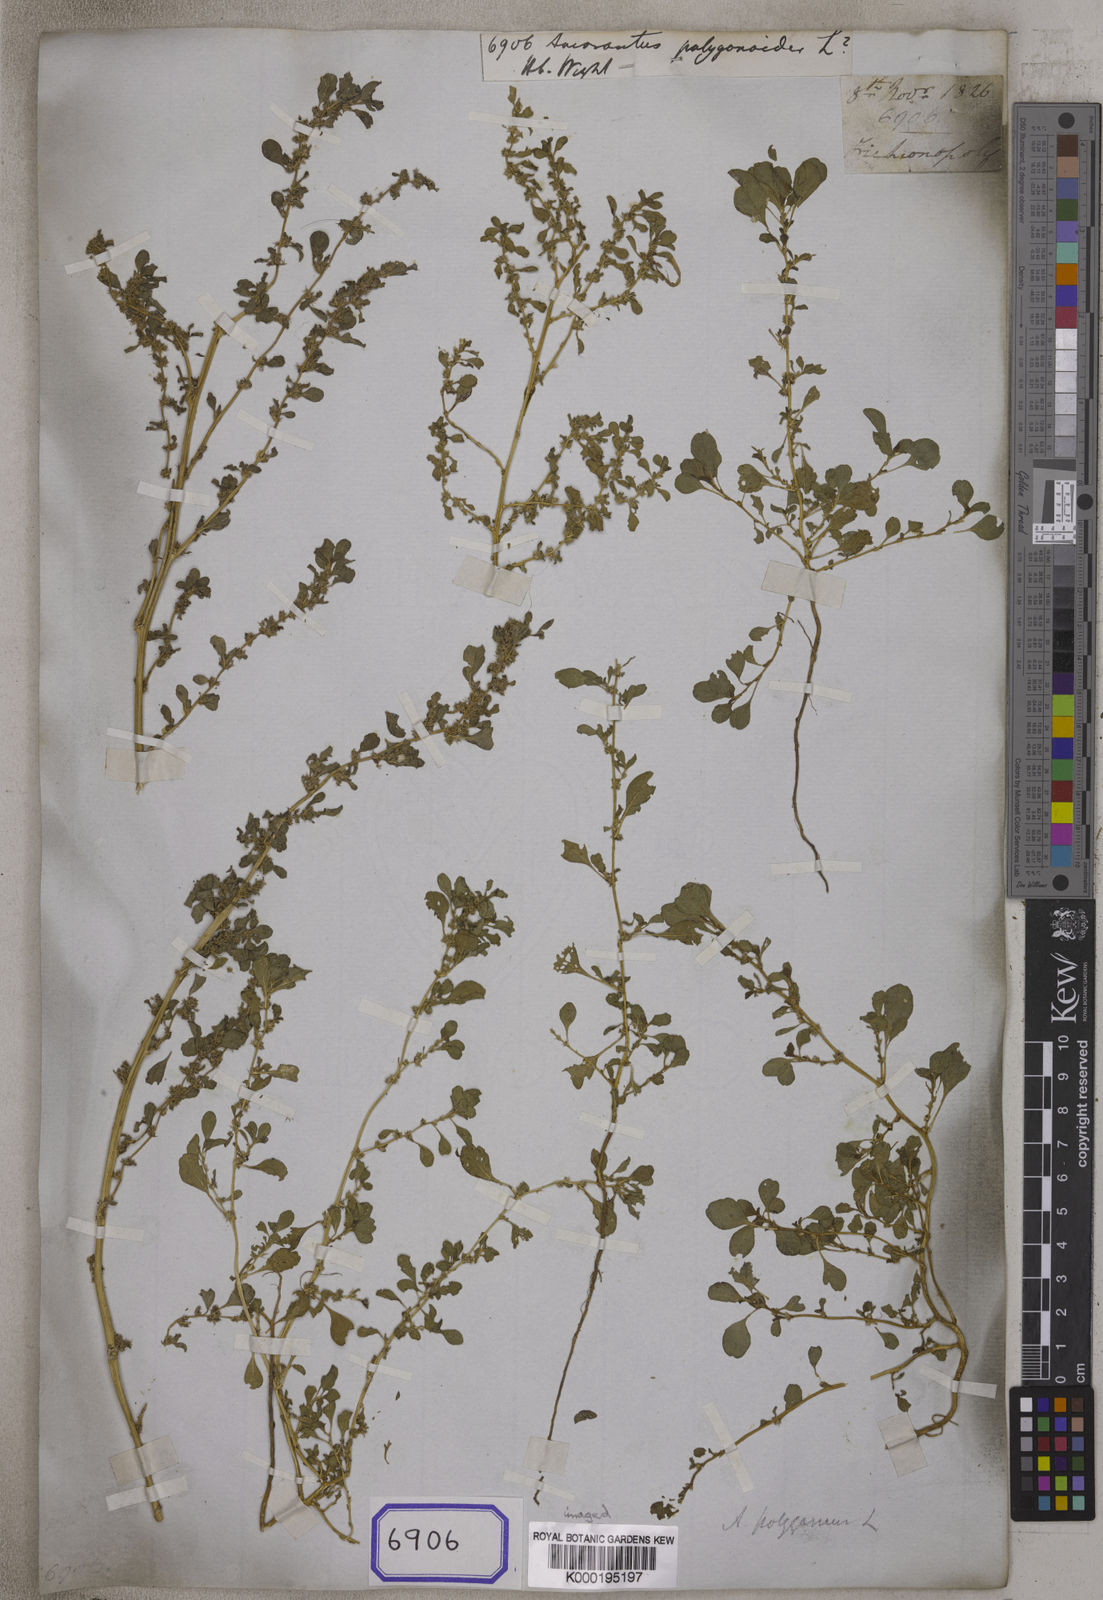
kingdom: Plantae
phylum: Tracheophyta
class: Magnoliopsida
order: Caryophyllales
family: Amaranthaceae
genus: Amaranthus
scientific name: Amaranthus polygonoides
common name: Tropical amaranth
